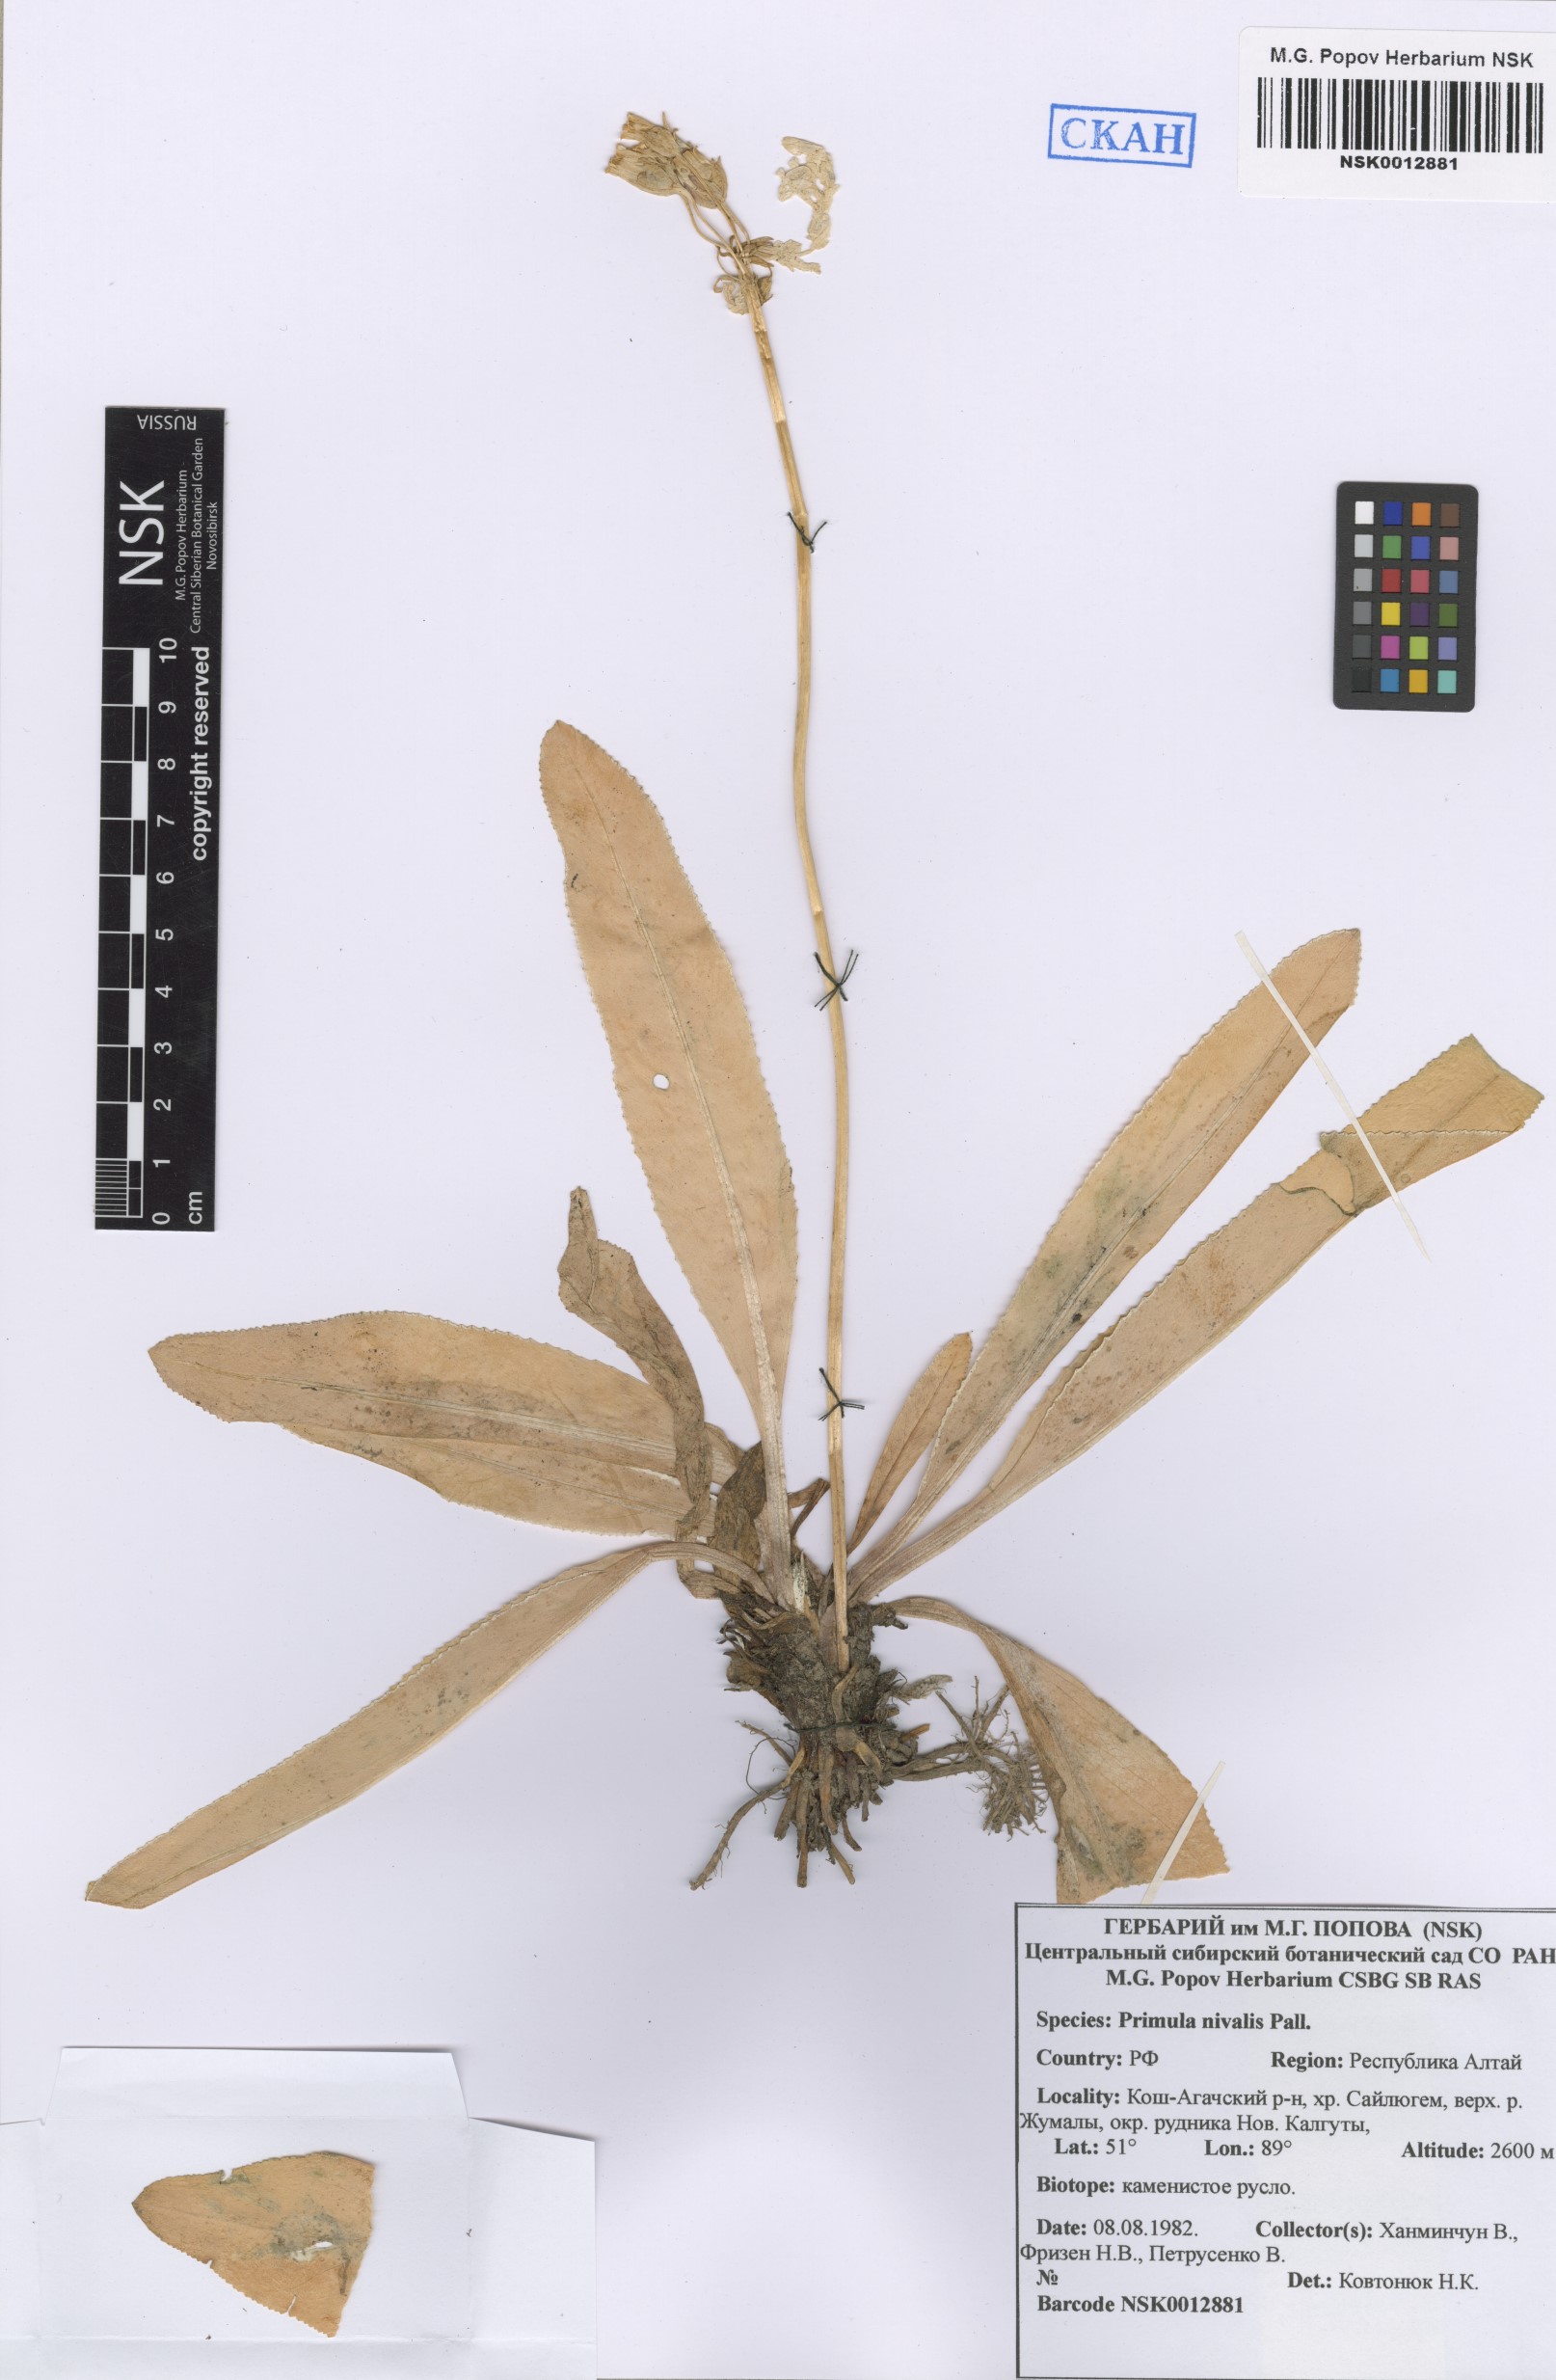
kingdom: Plantae
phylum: Tracheophyta
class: Magnoliopsida
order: Ericales
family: Primulaceae
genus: Primula
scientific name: Primula nivalis
